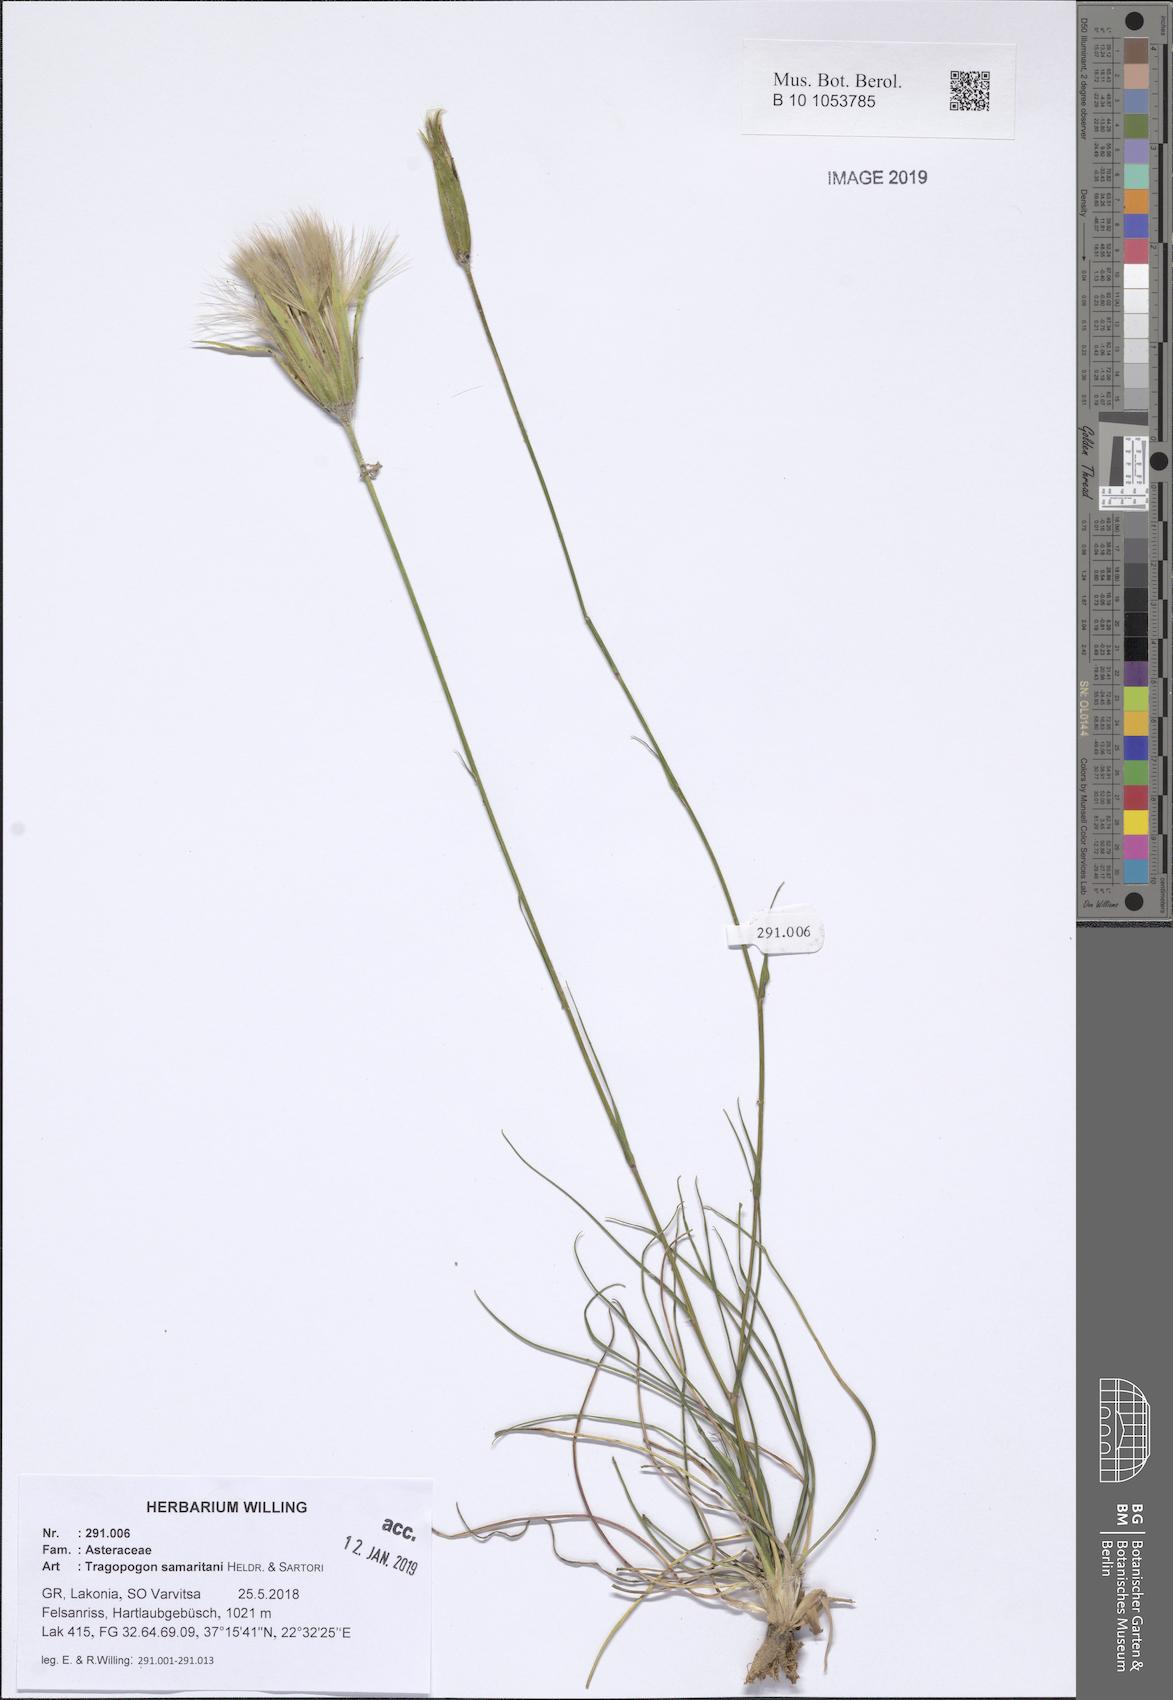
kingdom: Plantae
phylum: Tracheophyta
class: Magnoliopsida
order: Asterales
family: Asteraceae
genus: Tragopogon
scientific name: Tragopogon samaritani
